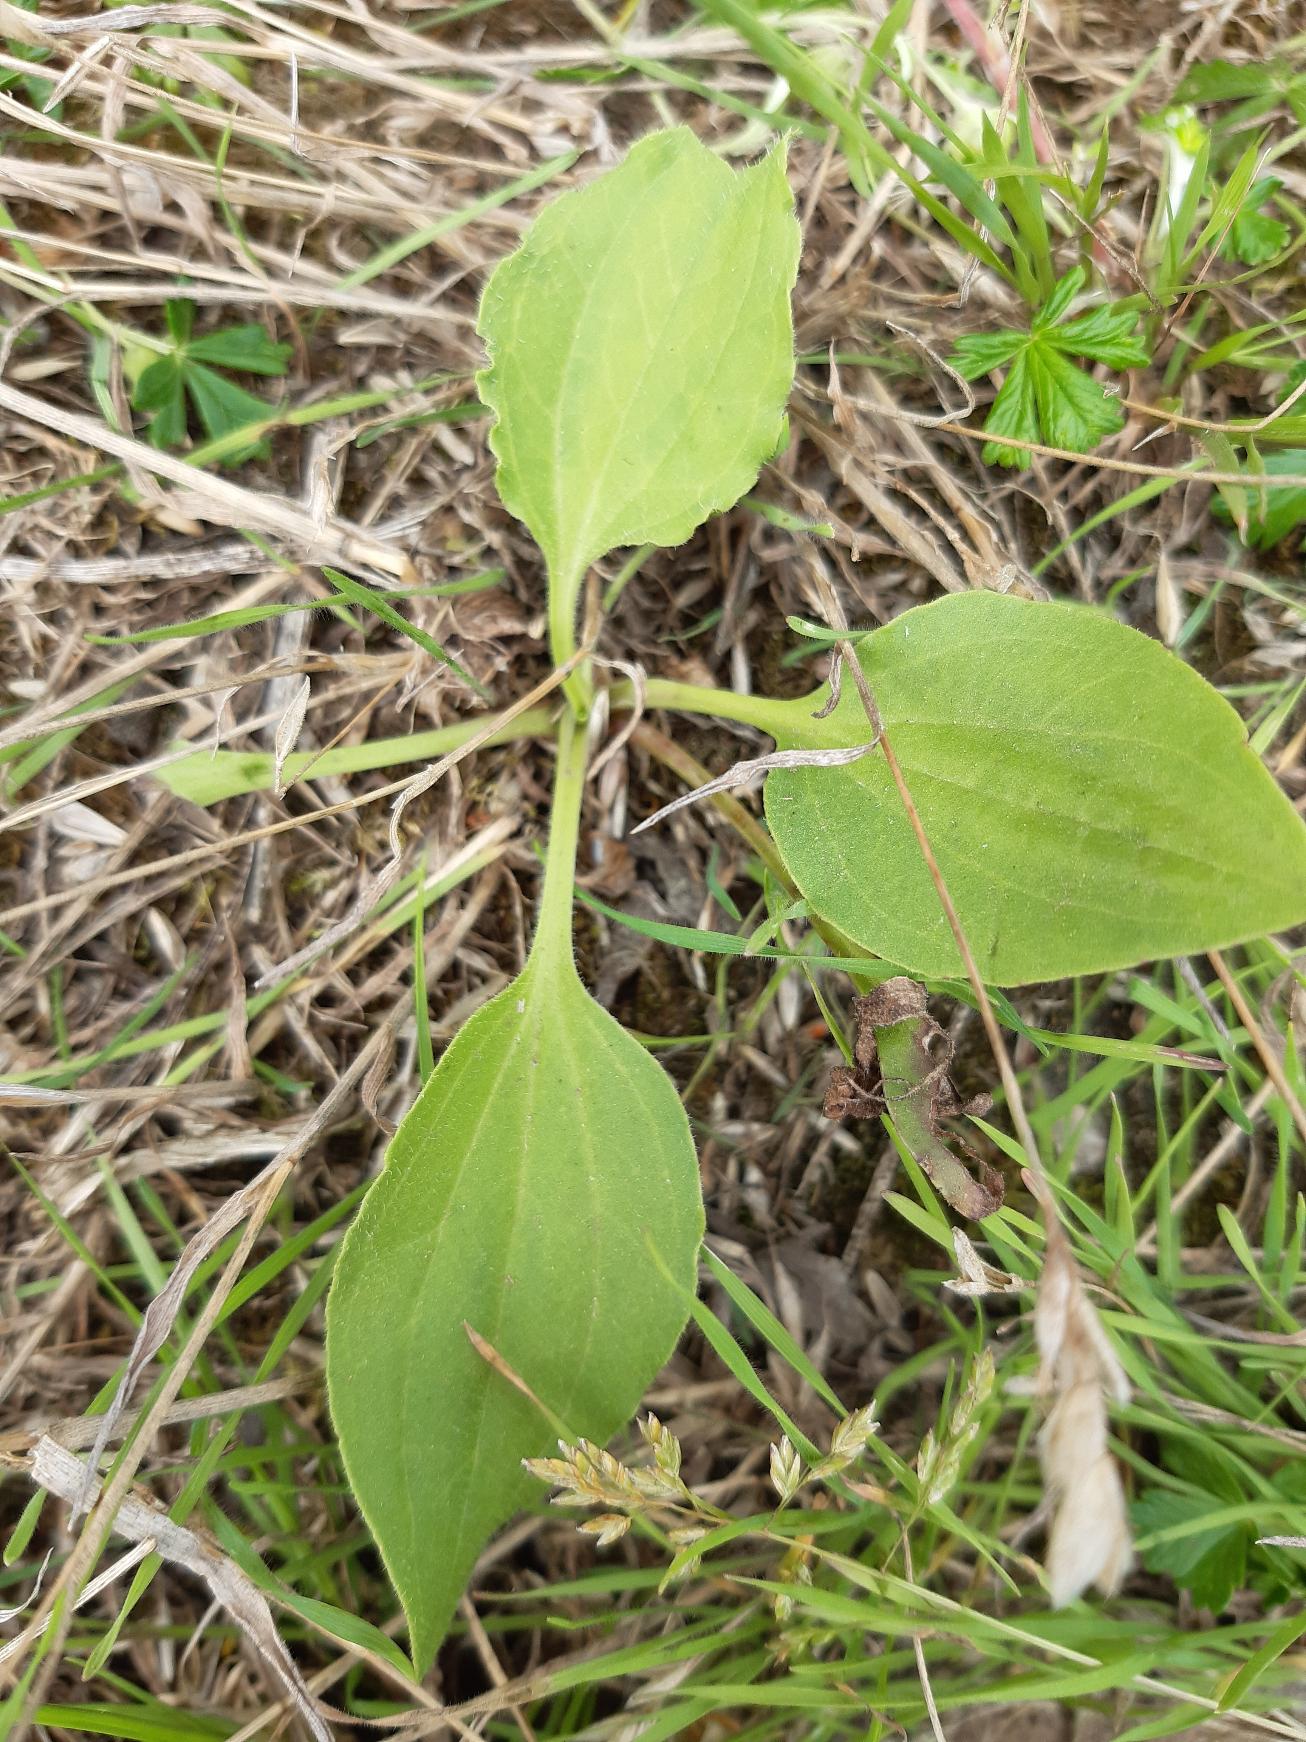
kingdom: Plantae
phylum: Tracheophyta
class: Magnoliopsida
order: Lamiales
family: Plantaginaceae
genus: Plantago
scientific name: Plantago major
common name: Glat vejbred
